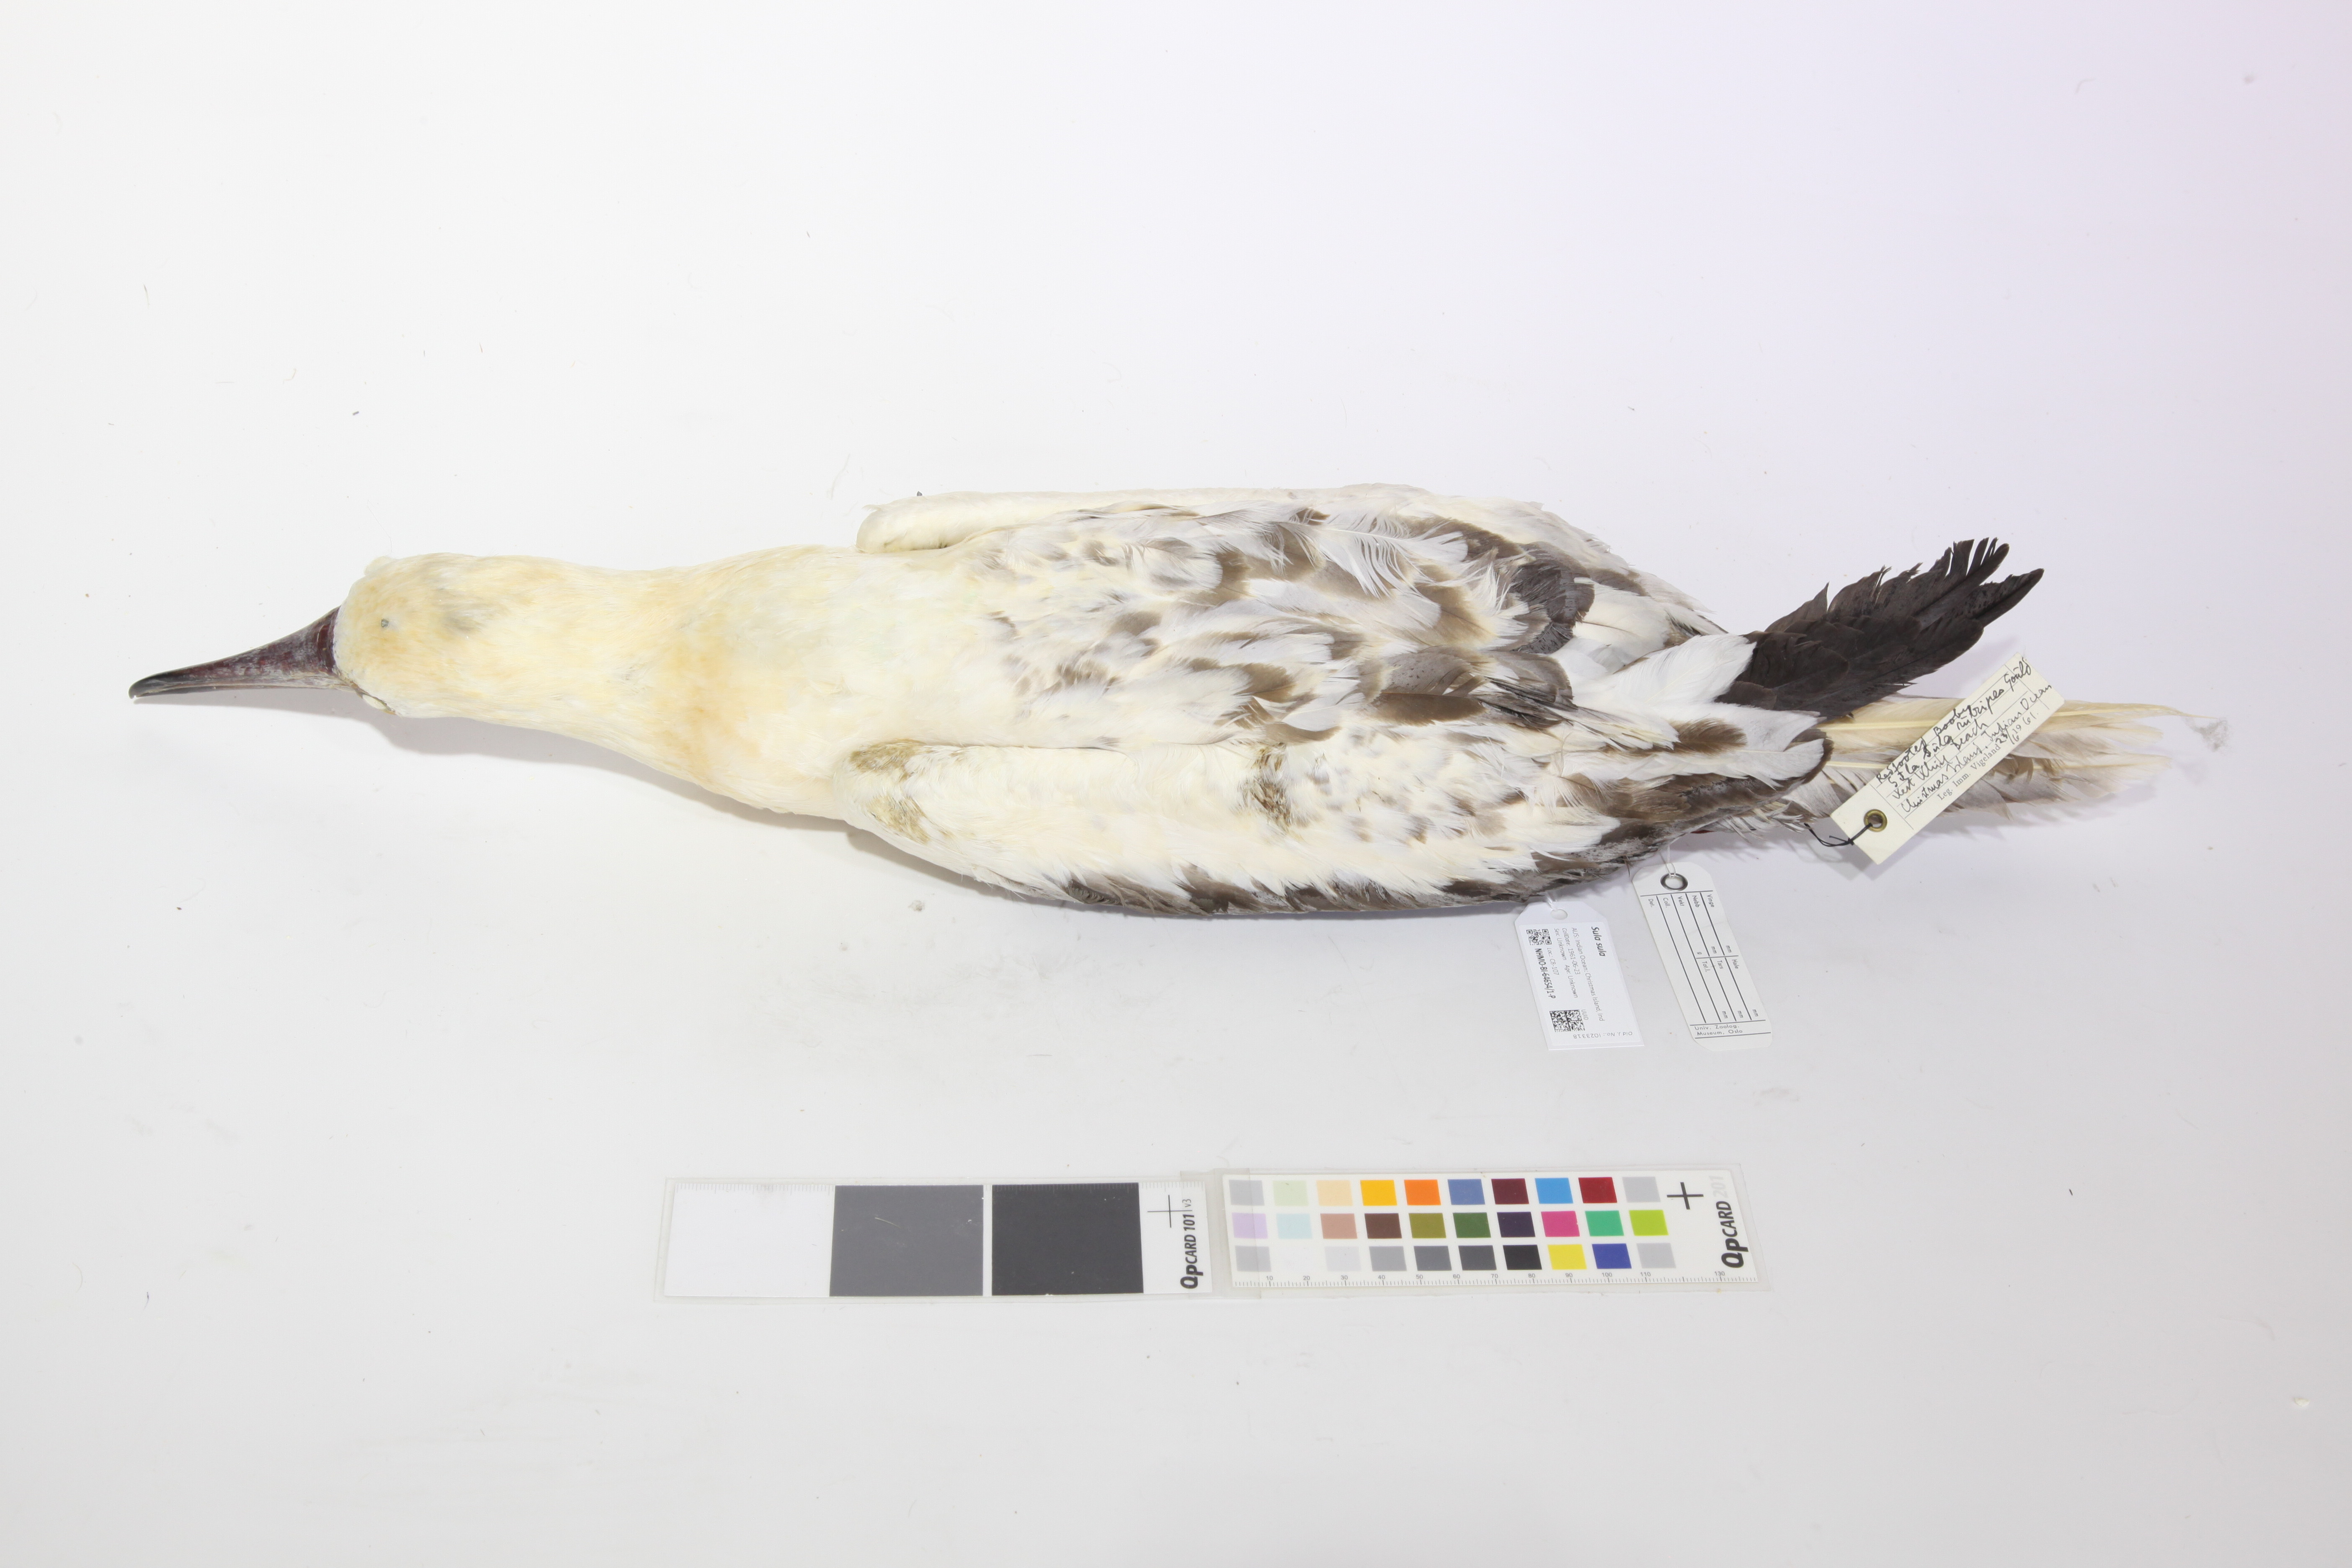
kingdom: Animalia
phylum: Chordata
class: Aves
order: Suliformes
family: Sulidae
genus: Sula
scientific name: Sula sula
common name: Red-footed booby
